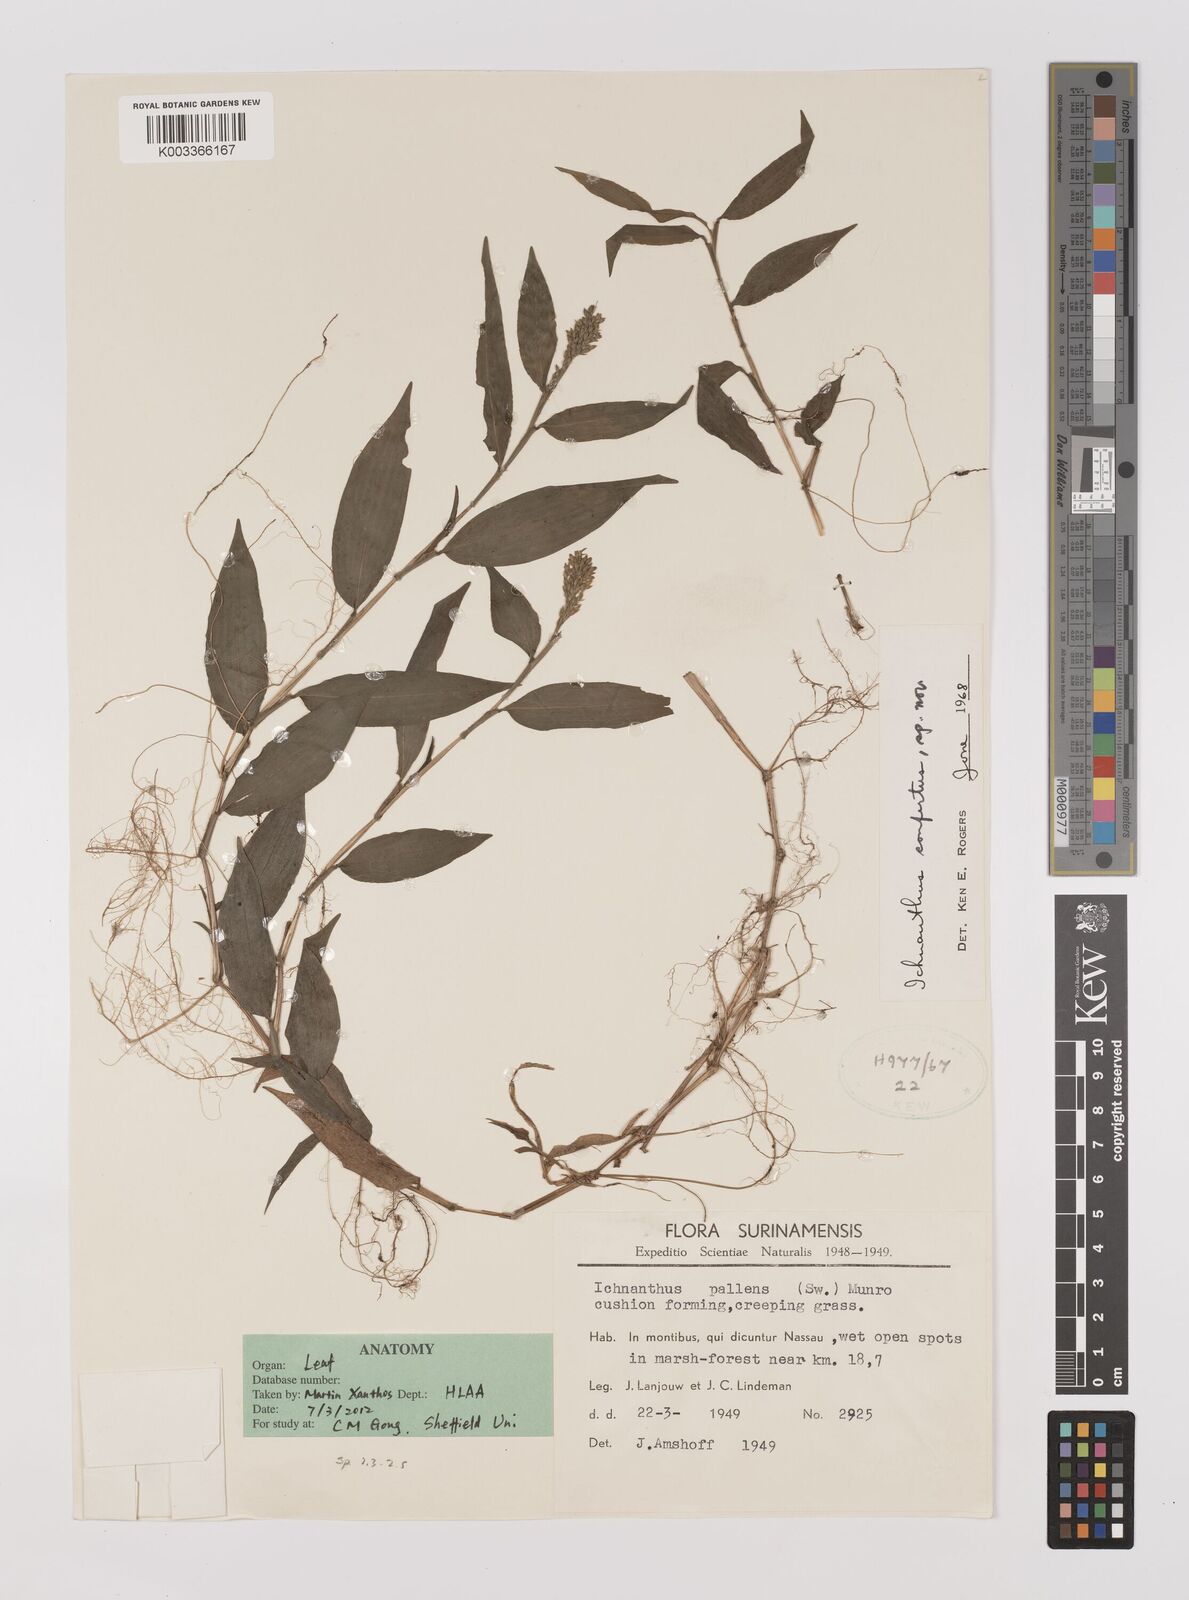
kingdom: Plantae
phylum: Tracheophyta
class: Liliopsida
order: Poales
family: Poaceae
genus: Ichnanthus
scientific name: Ichnanthus pallens
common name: Water grass
